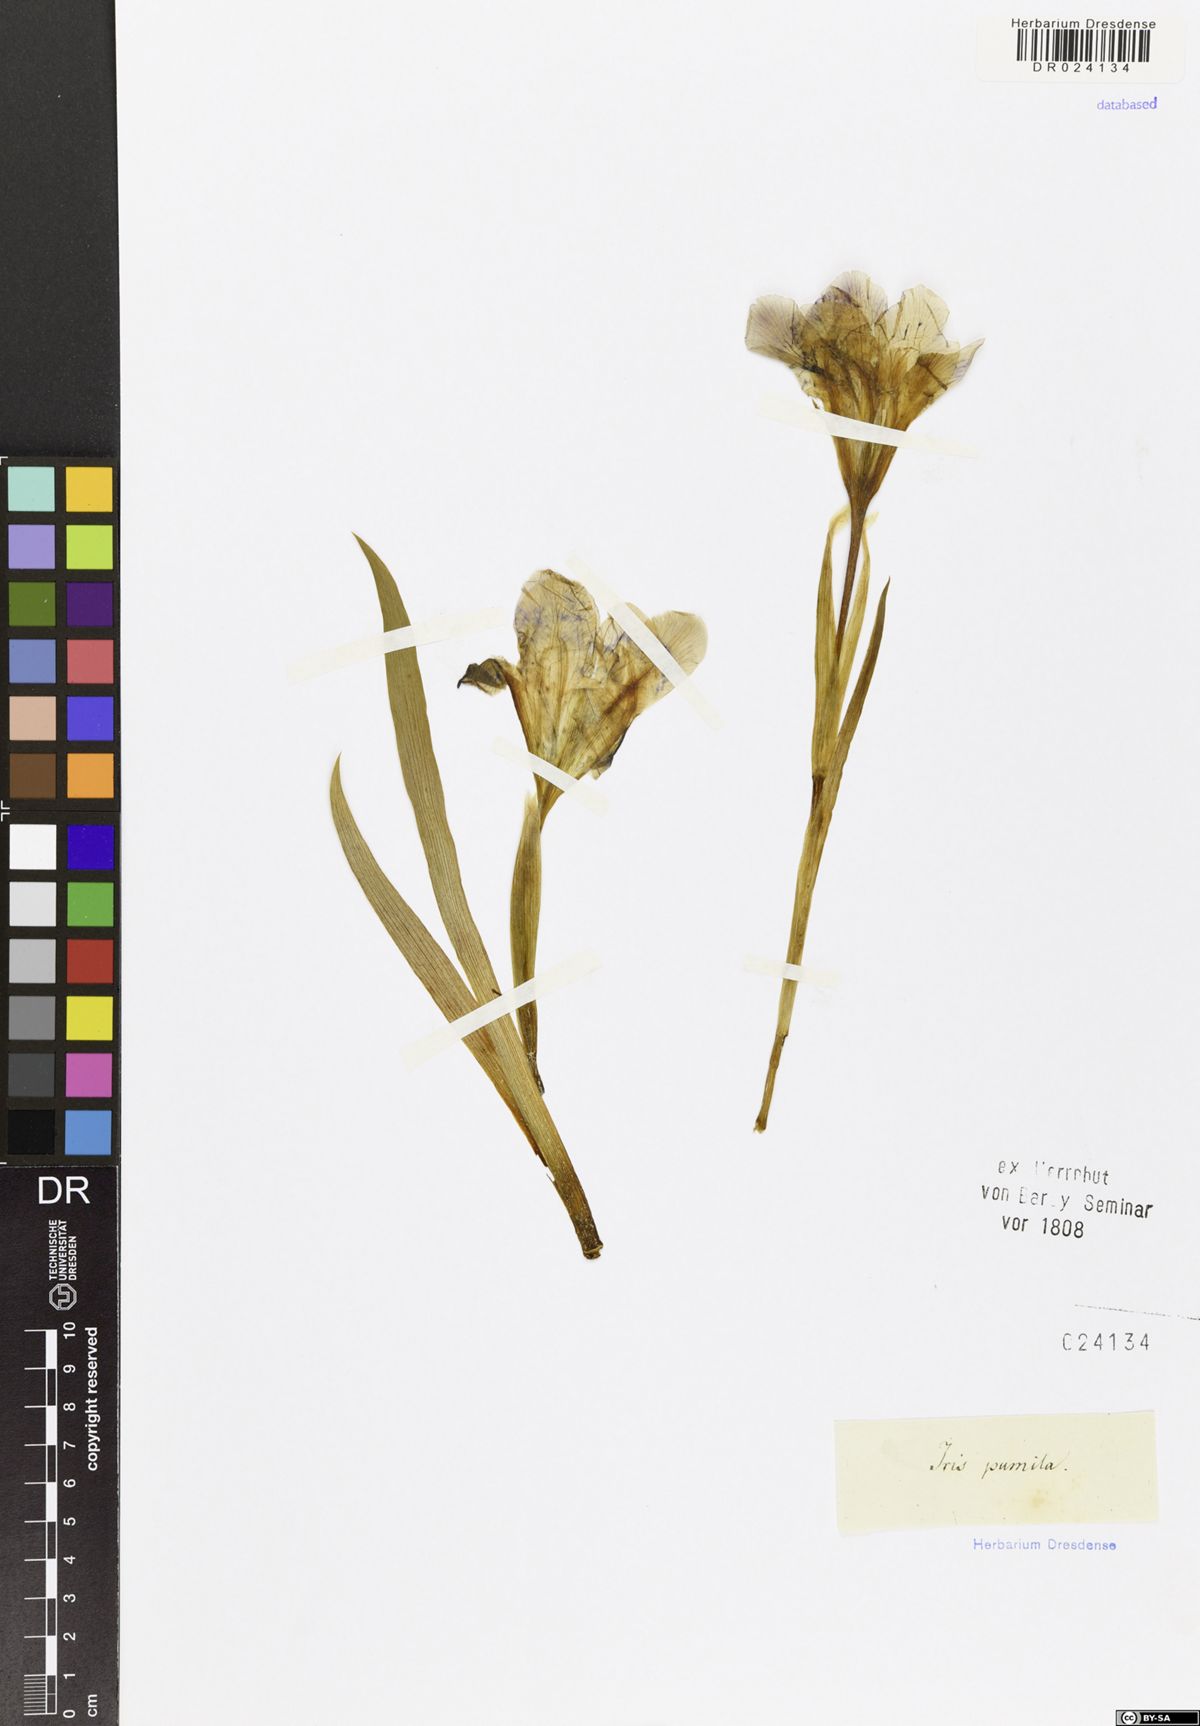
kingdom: Plantae
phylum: Tracheophyta
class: Liliopsida
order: Asparagales
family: Iridaceae
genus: Iris
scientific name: Iris pumila
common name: Dwarf iris
